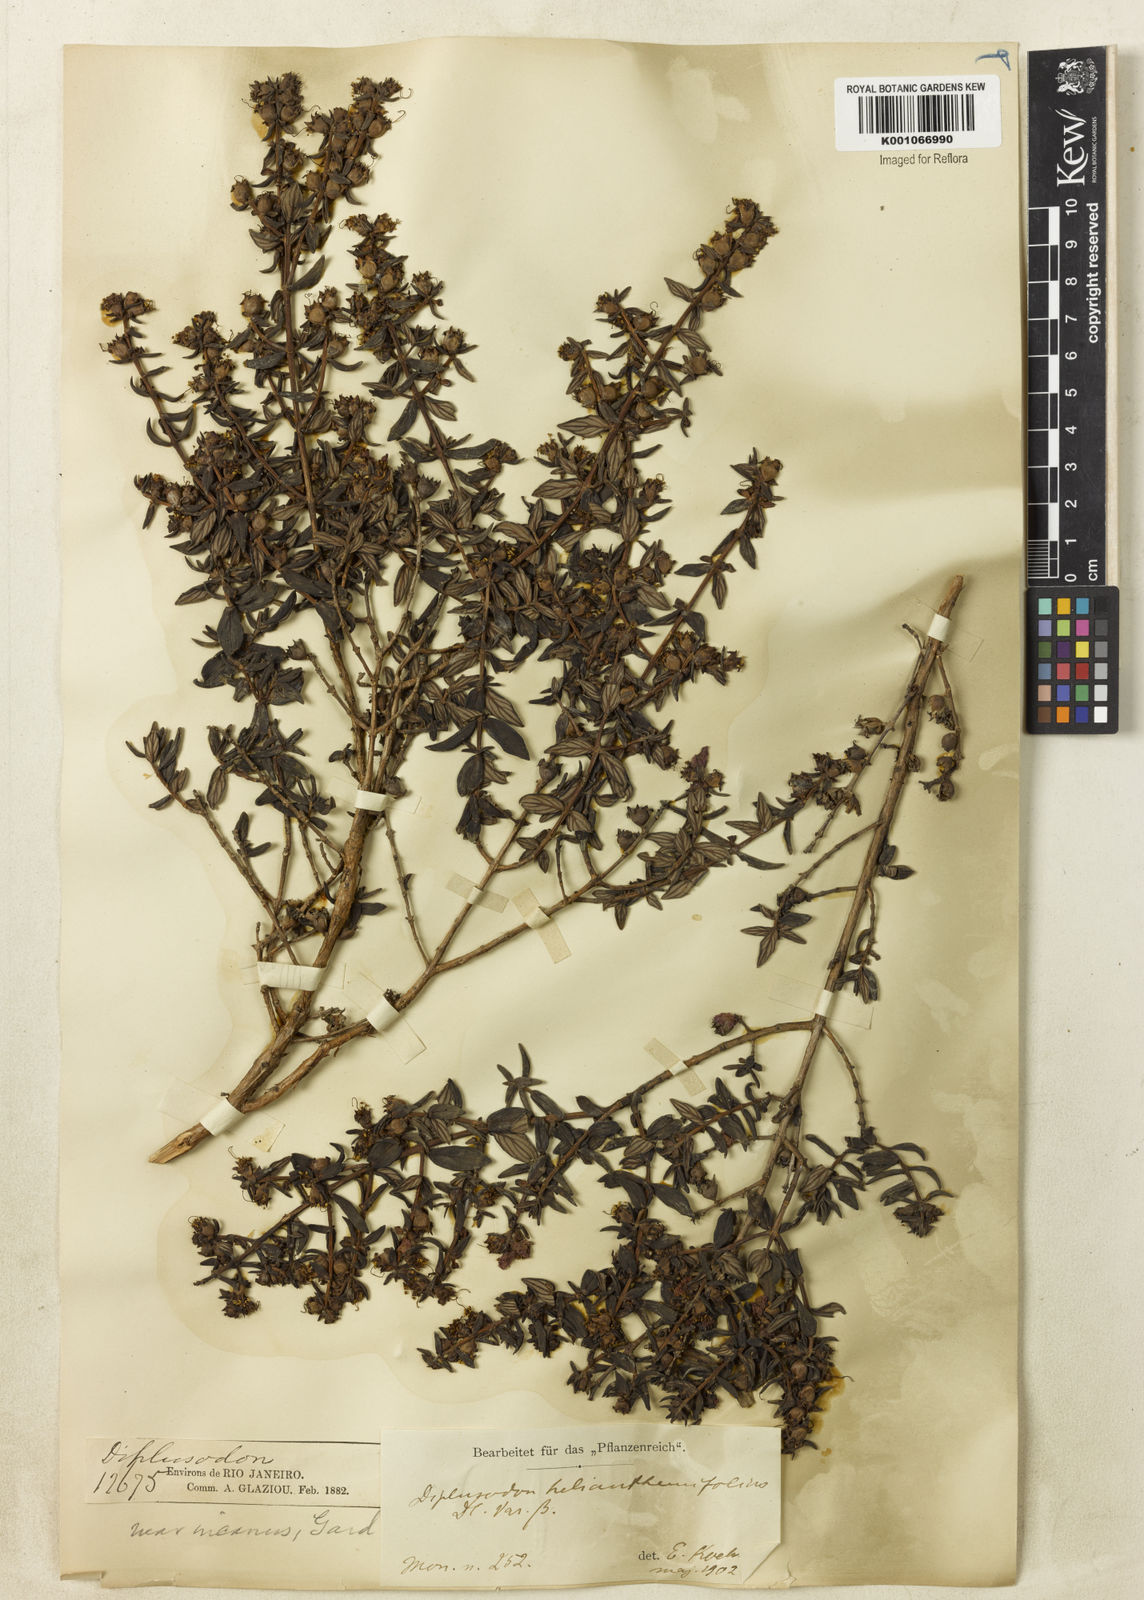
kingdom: Plantae
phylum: Tracheophyta
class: Magnoliopsida
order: Myrtales
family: Lythraceae
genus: Diplusodon
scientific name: Diplusodon helianthemifolius
